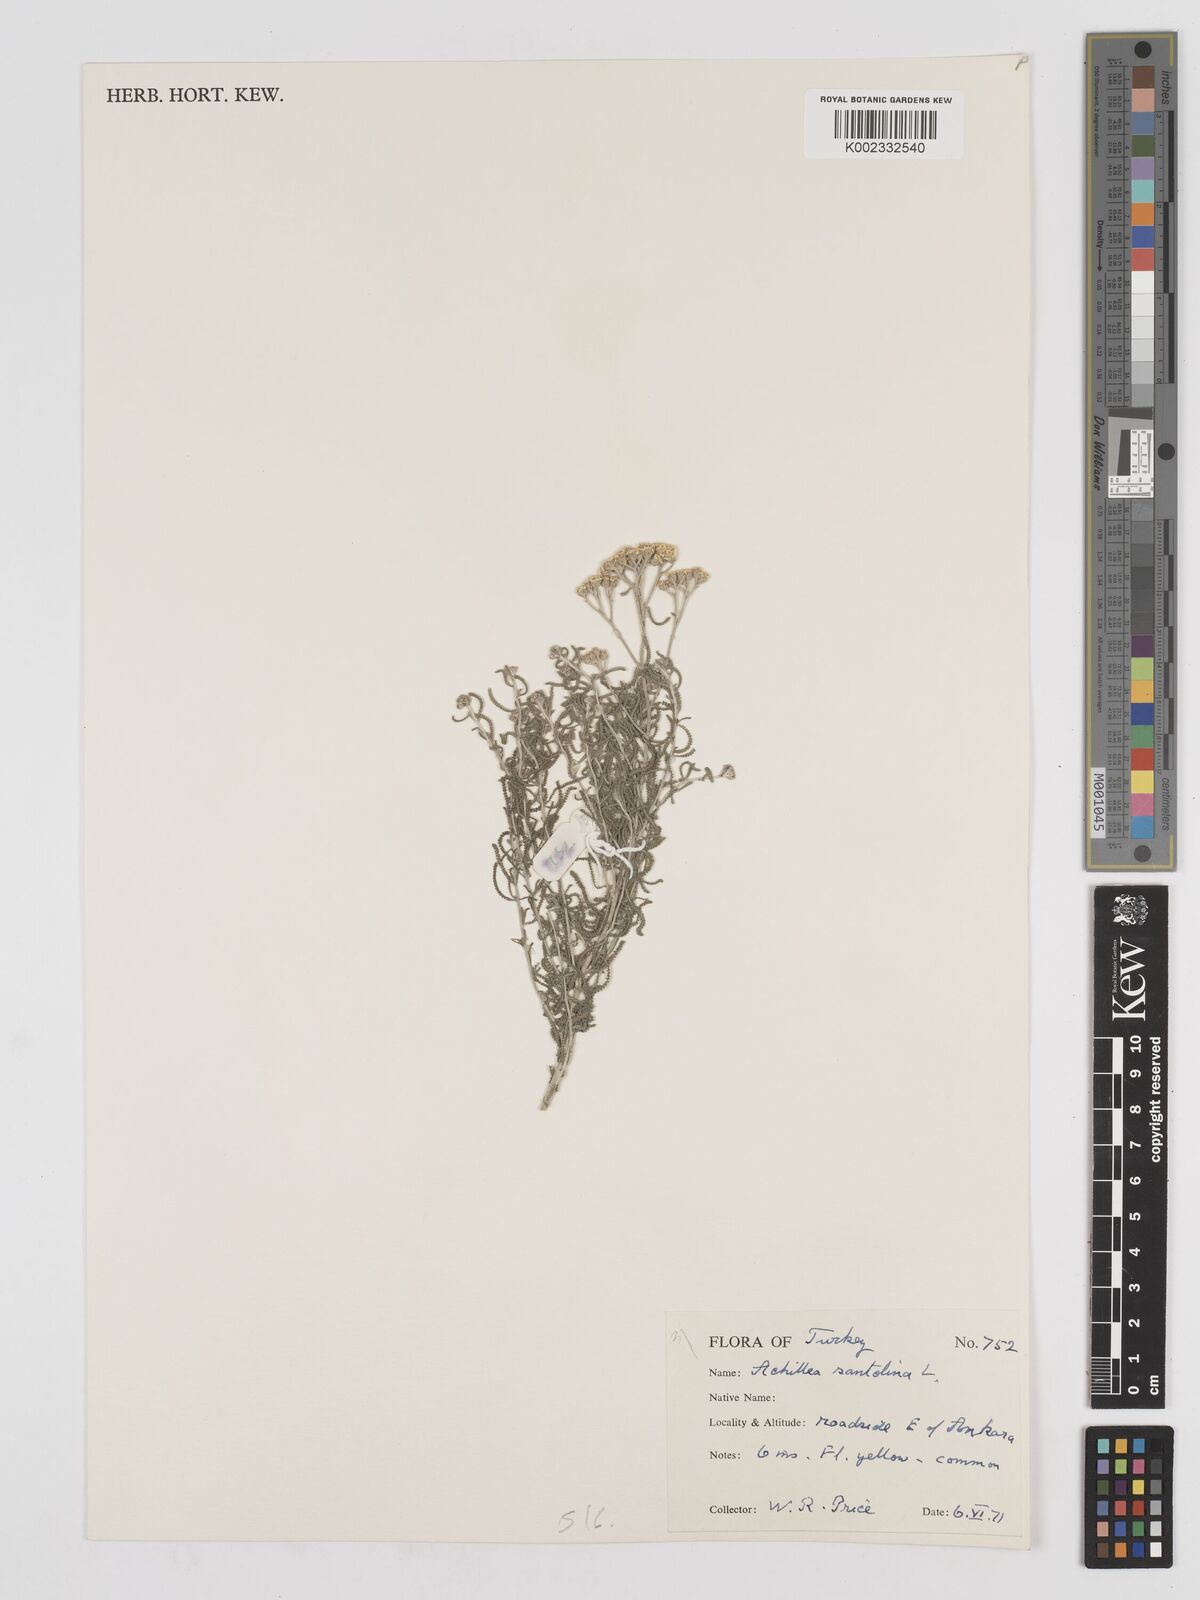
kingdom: Plantae
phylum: Tracheophyta
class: Magnoliopsida
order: Asterales
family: Asteraceae
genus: Achillea
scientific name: Achillea tenuifolia
